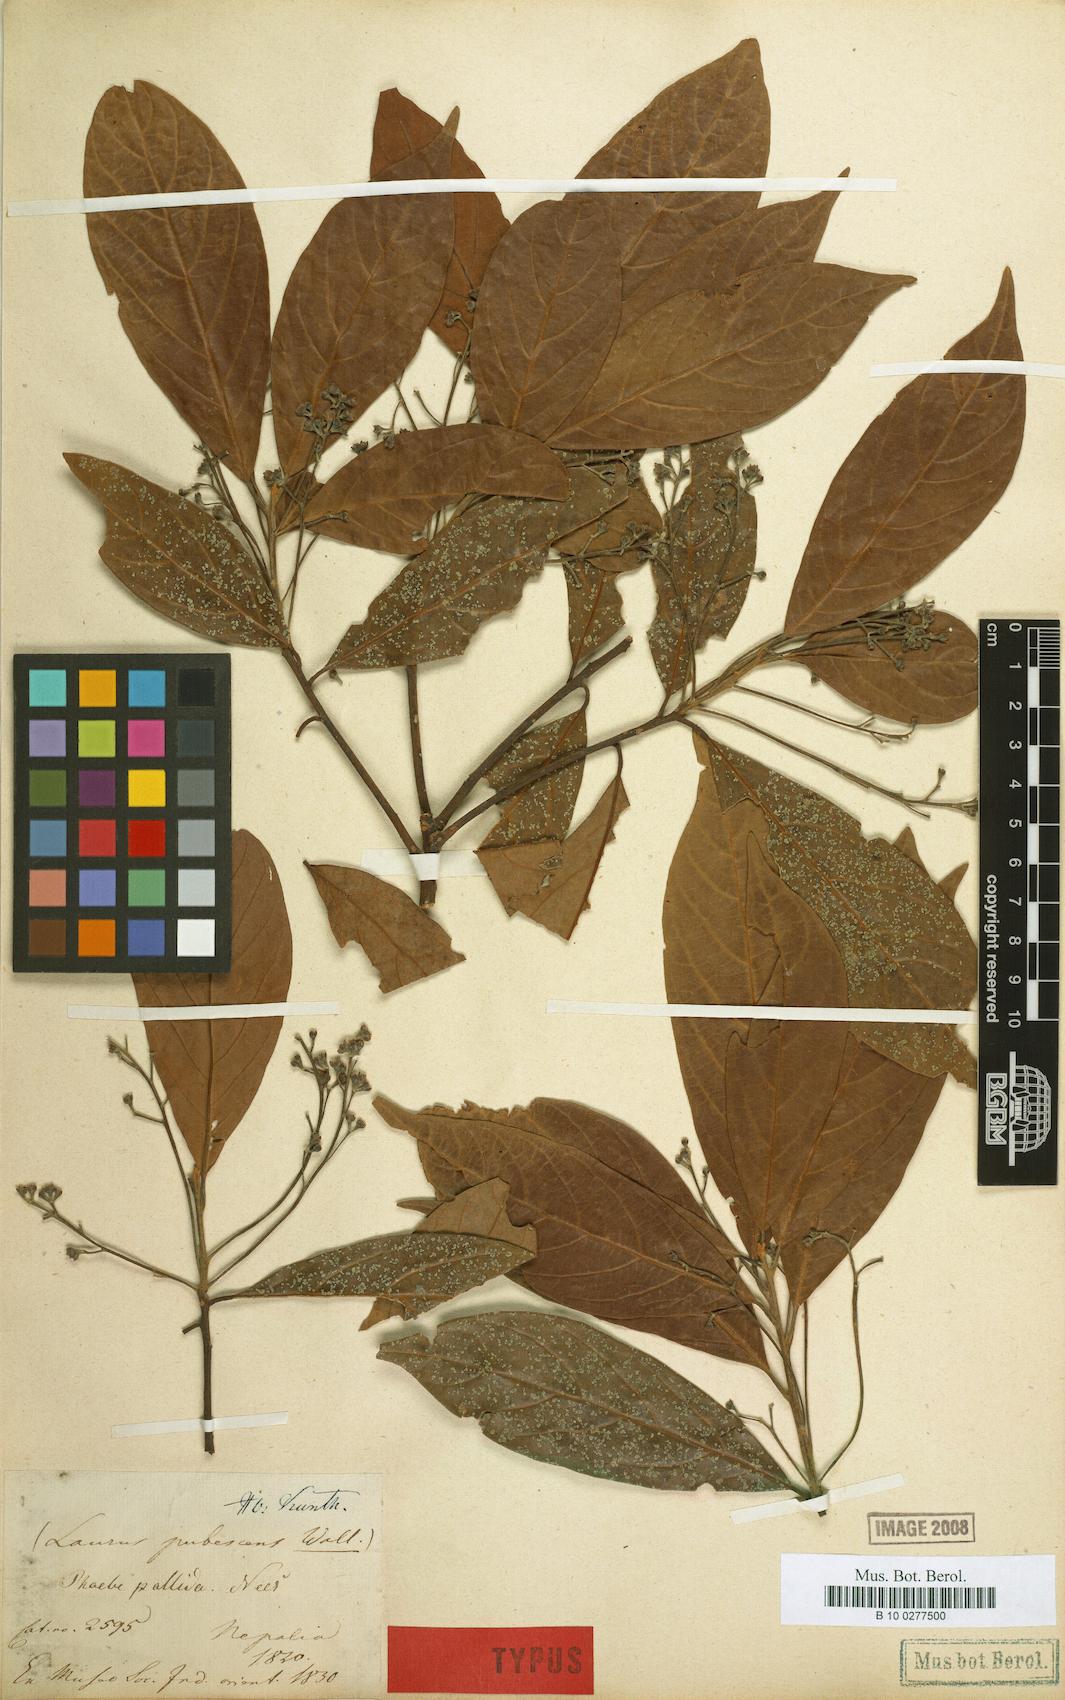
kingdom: Plantae
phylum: Tracheophyta
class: Magnoliopsida
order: Laurales
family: Lauraceae
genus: Phoebe
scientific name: Phoebe pallida
